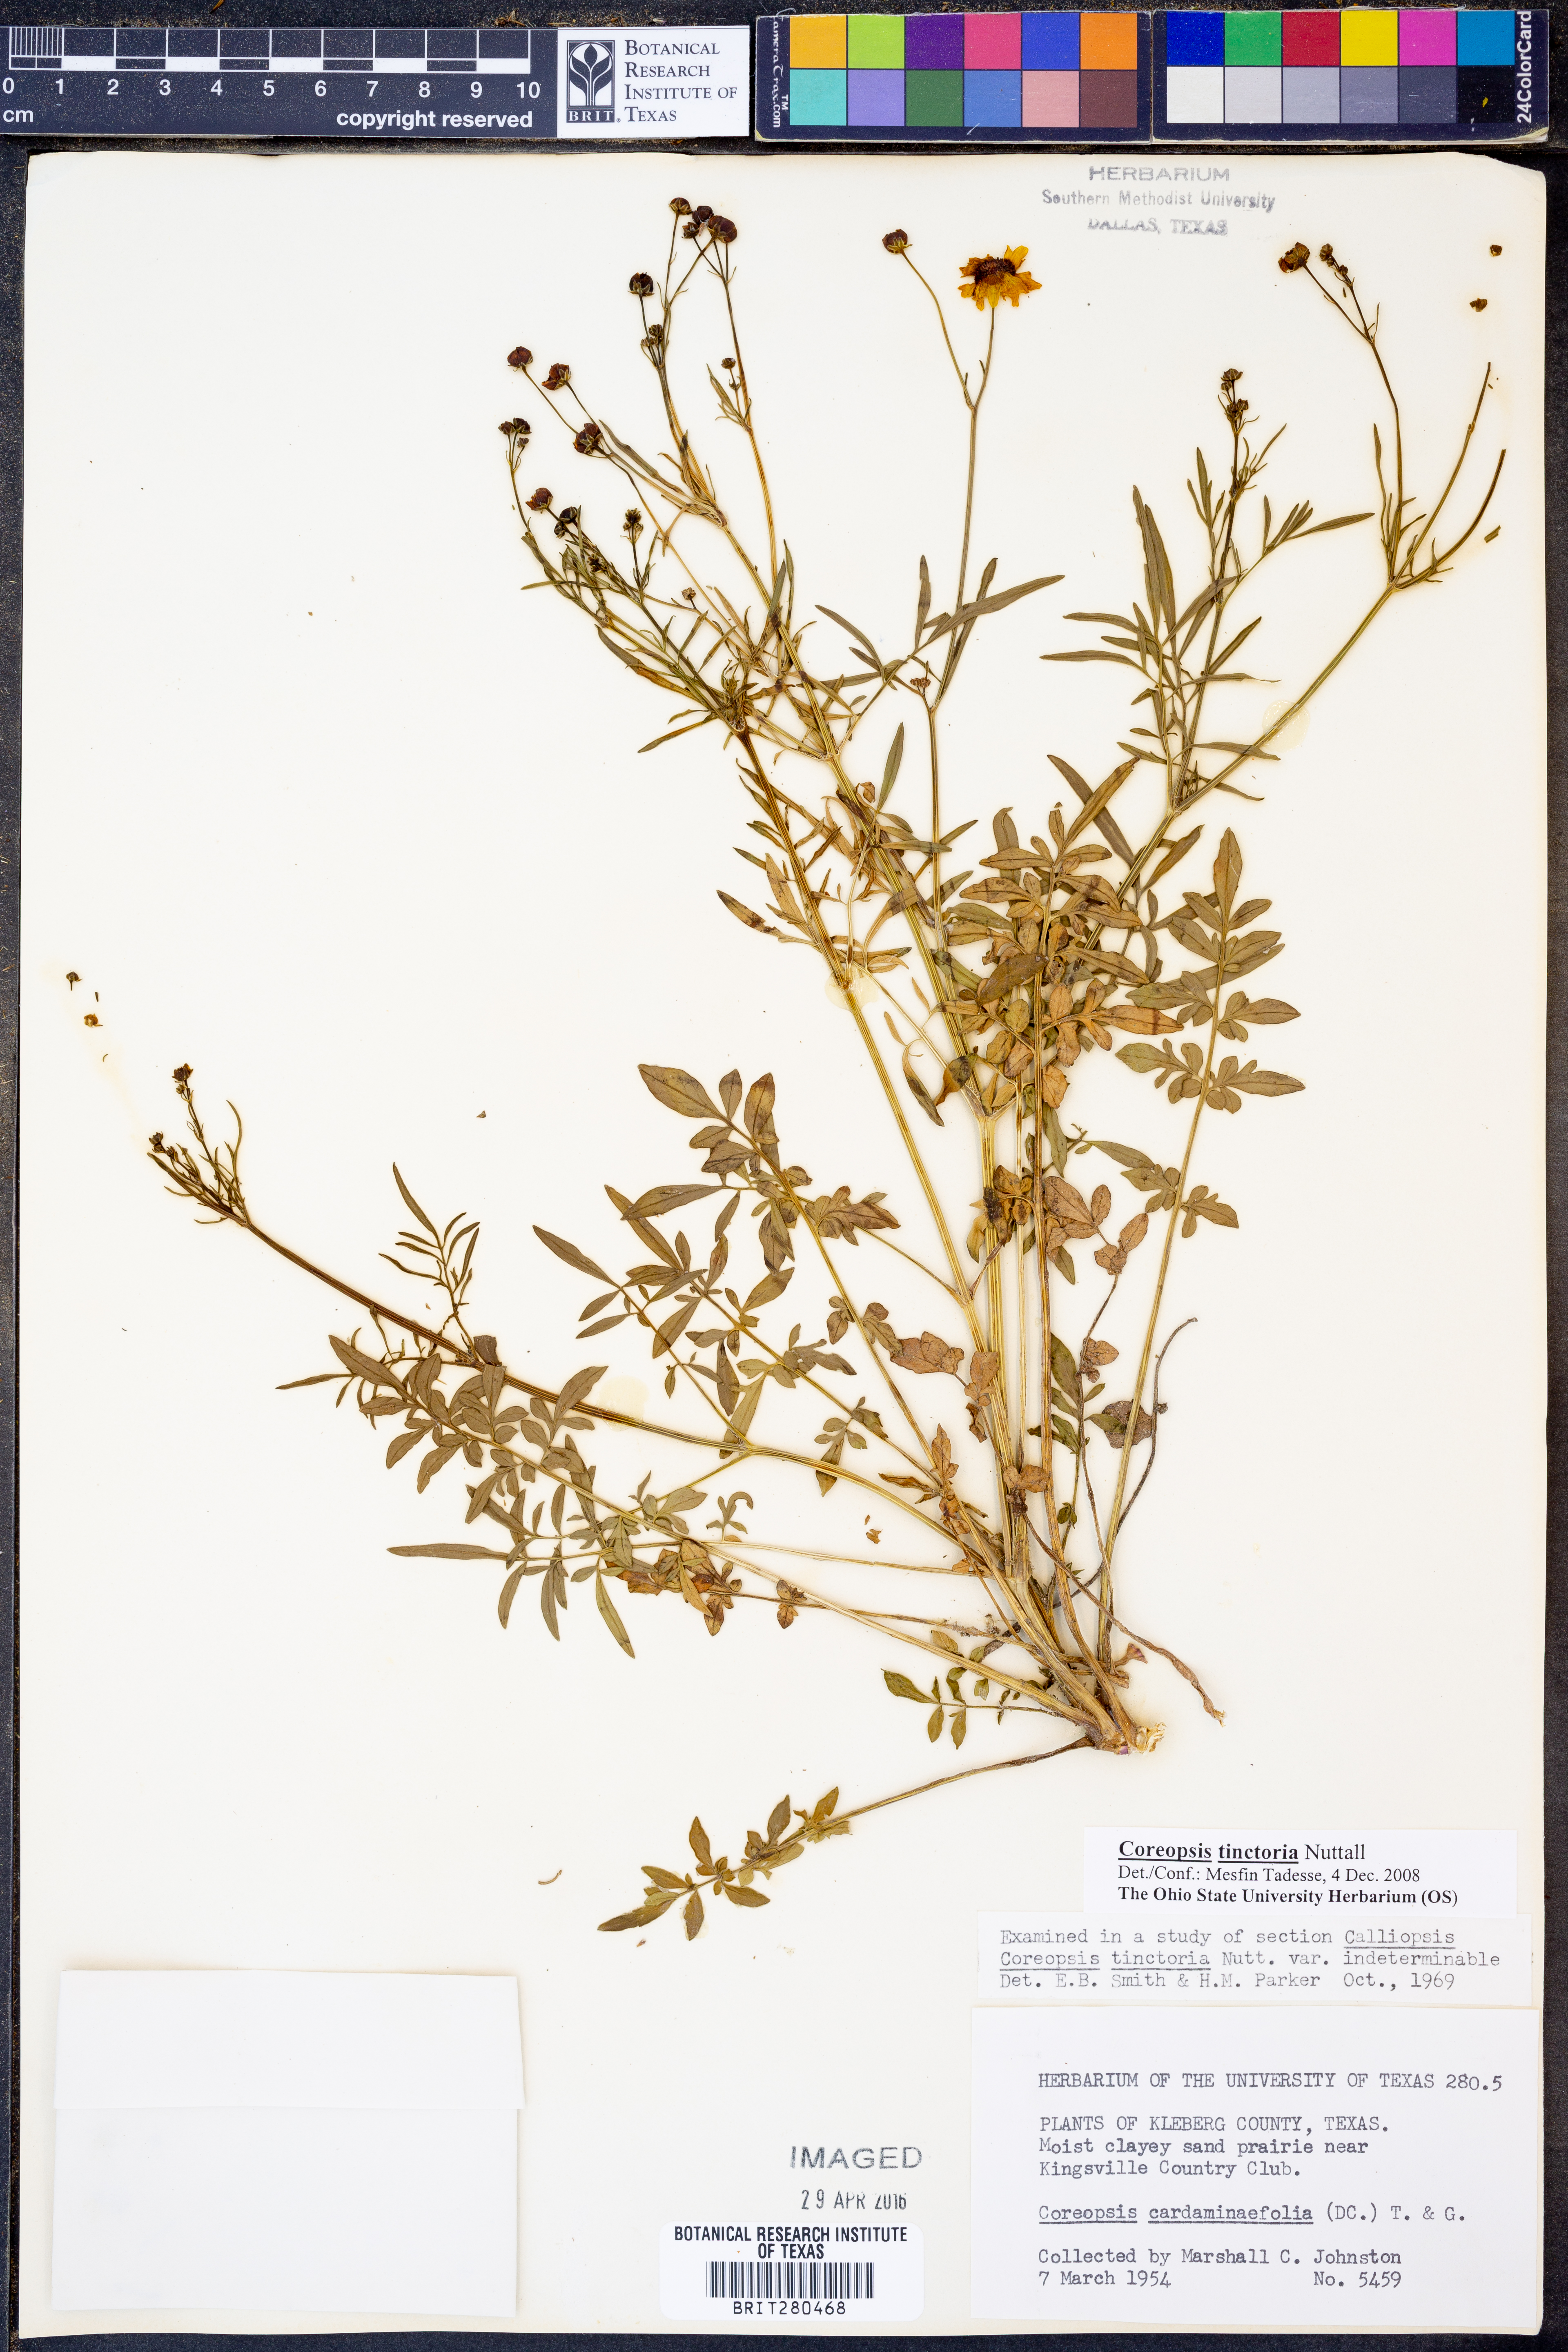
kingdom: Plantae
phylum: Tracheophyta
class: Magnoliopsida
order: Asterales
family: Asteraceae
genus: Coreopsis
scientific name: Coreopsis tinctoria
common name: Garden tickseed
